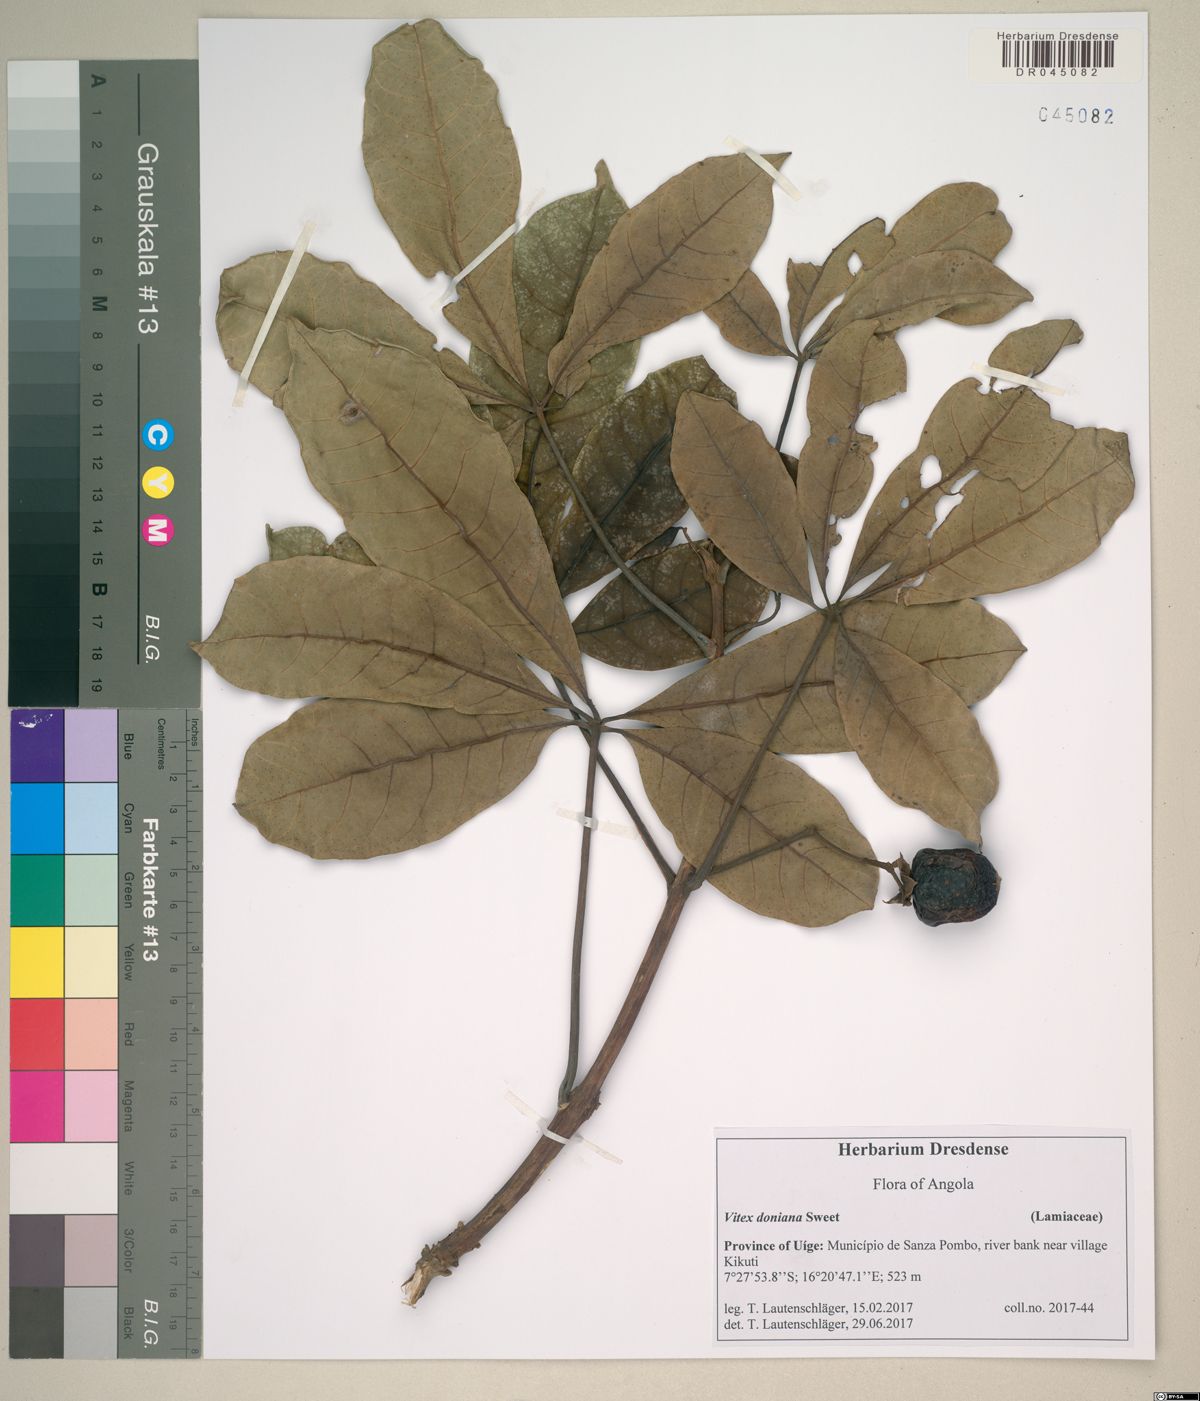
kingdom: Plantae
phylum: Tracheophyta
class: Magnoliopsida
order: Lamiales
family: Lamiaceae
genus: Vitex
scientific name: Vitex doniana
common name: Black plum
